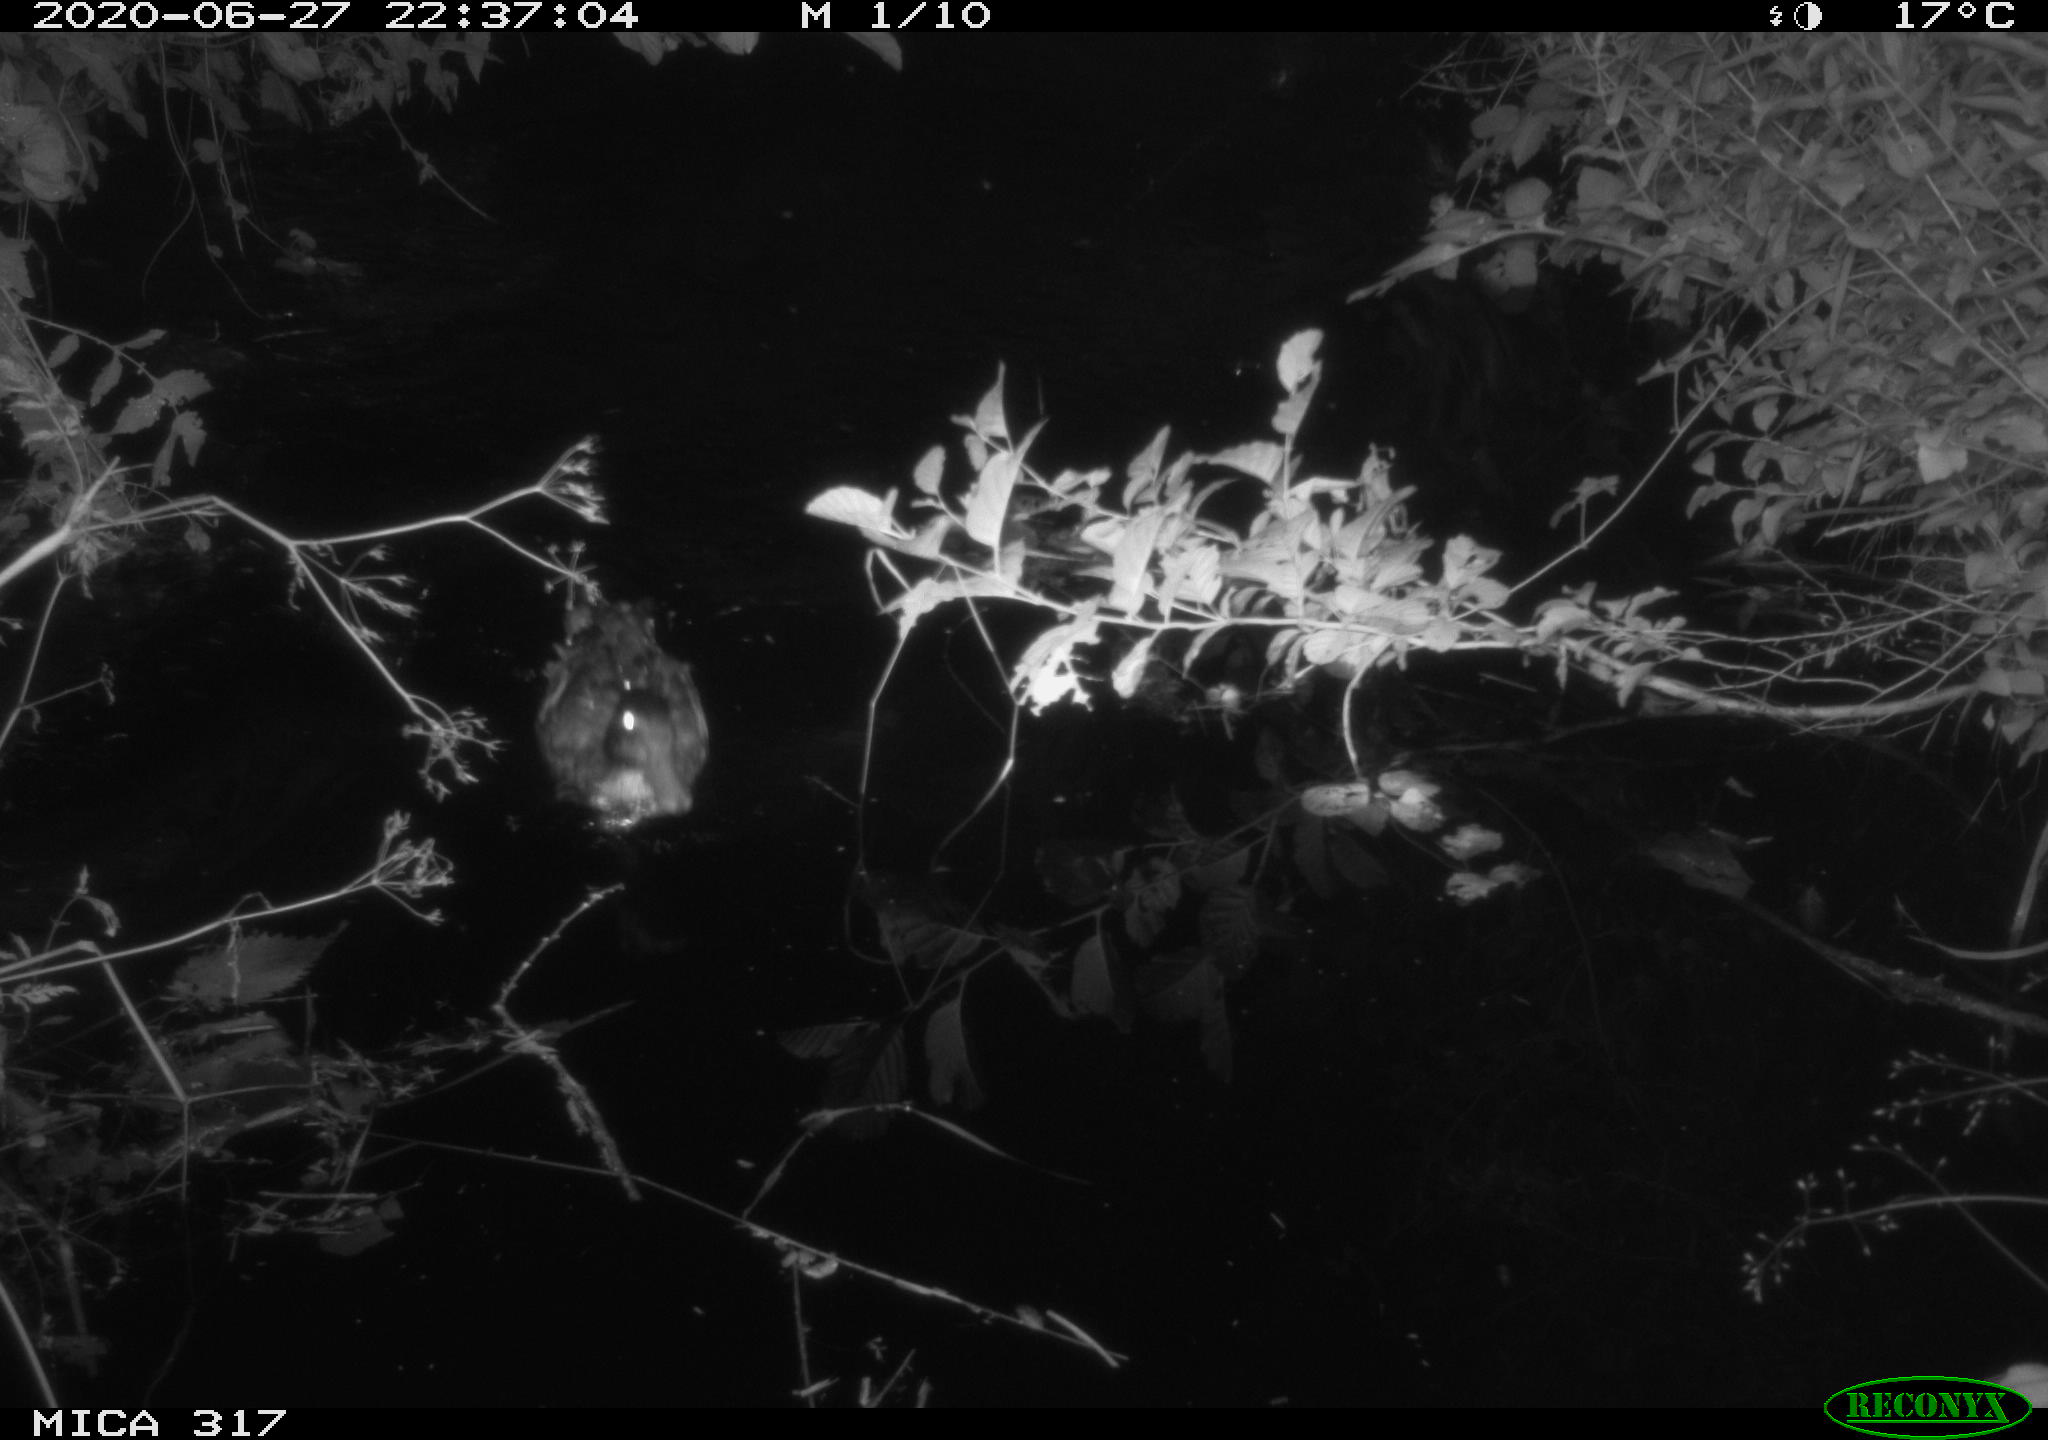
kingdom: Animalia
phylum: Chordata
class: Aves
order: Gruiformes
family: Rallidae
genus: Fulica
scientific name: Fulica atra
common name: Eurasian coot
